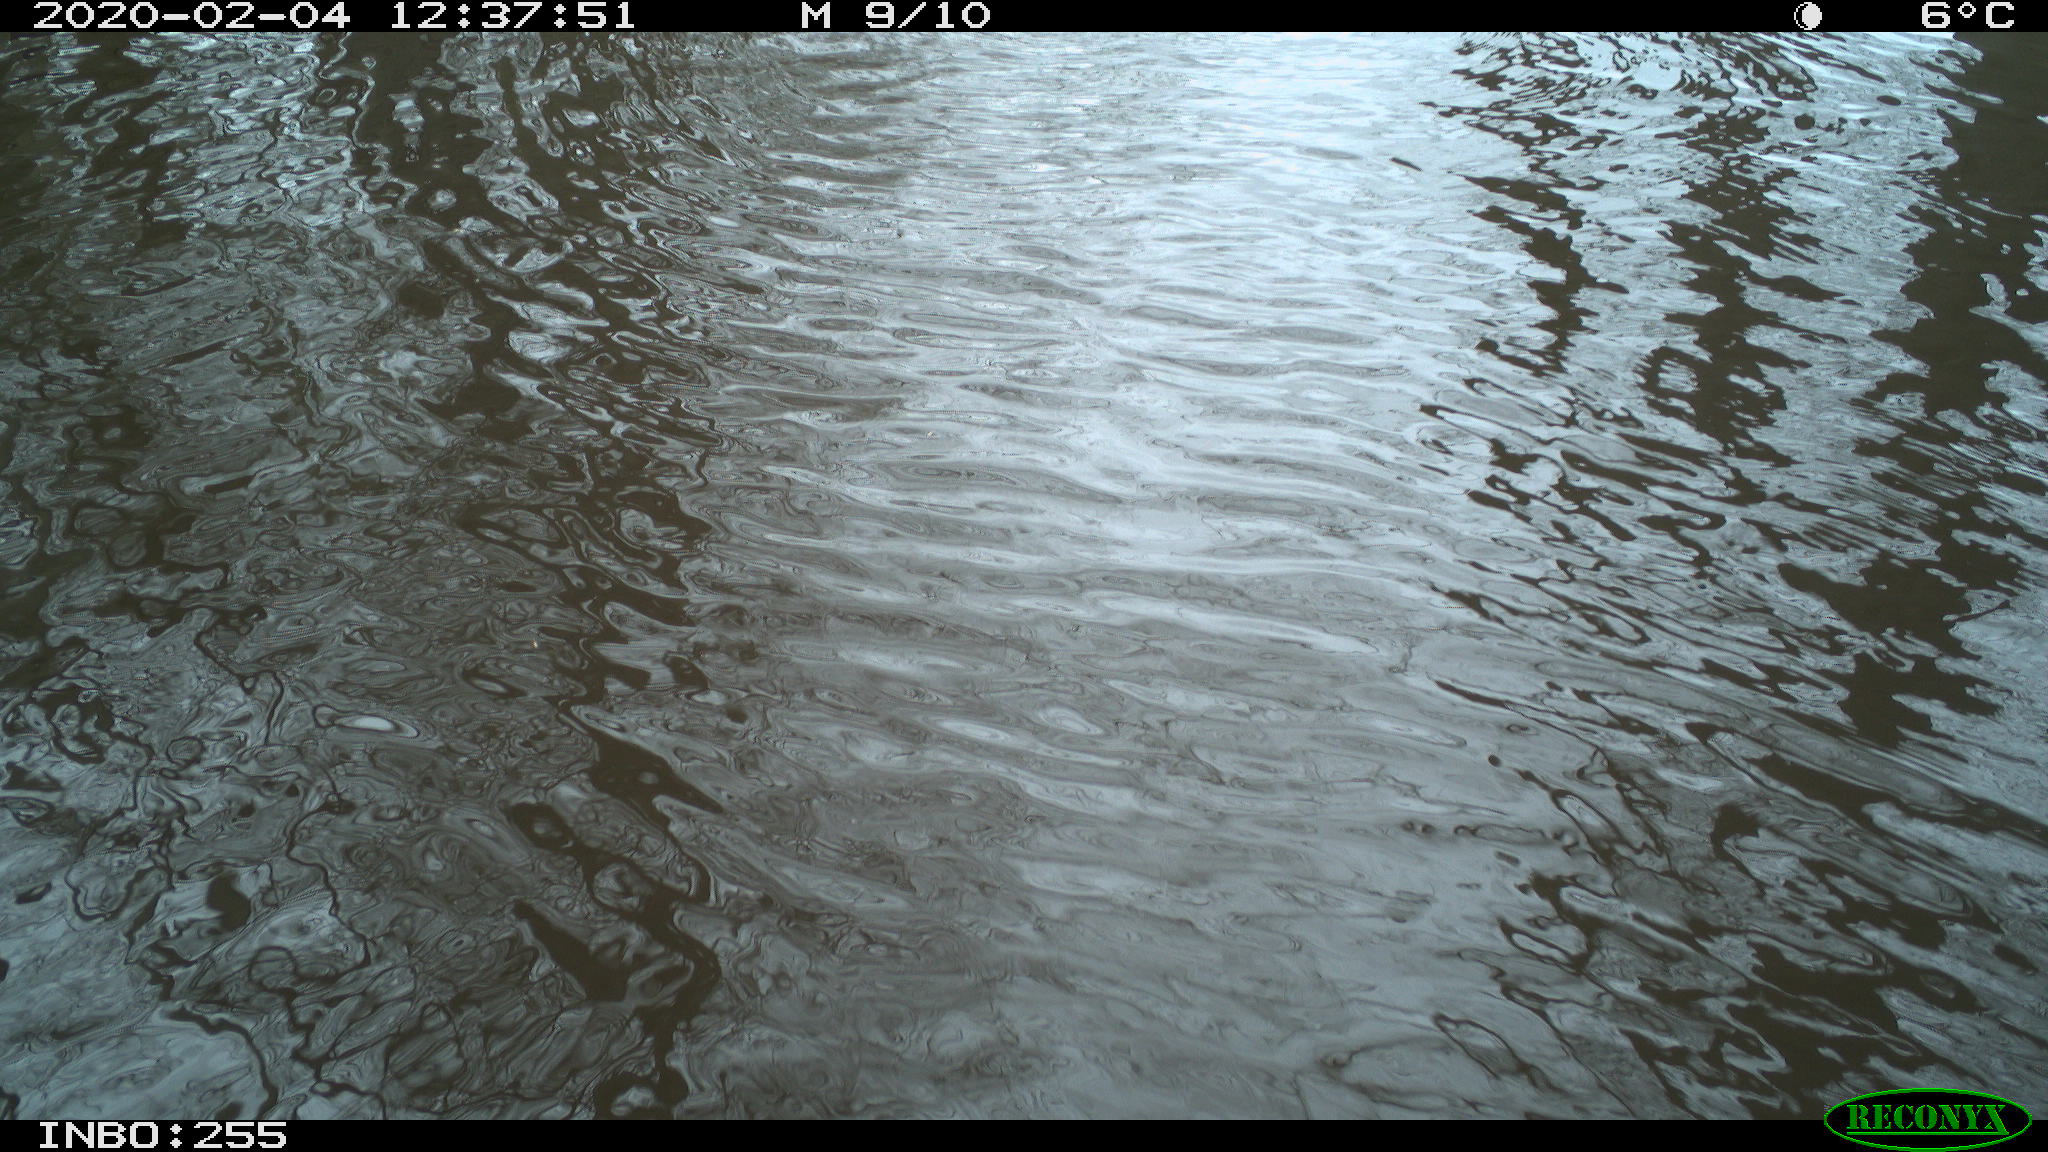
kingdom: Animalia
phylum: Chordata
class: Aves
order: Gruiformes
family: Rallidae
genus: Fulica
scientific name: Fulica atra
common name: Eurasian coot
